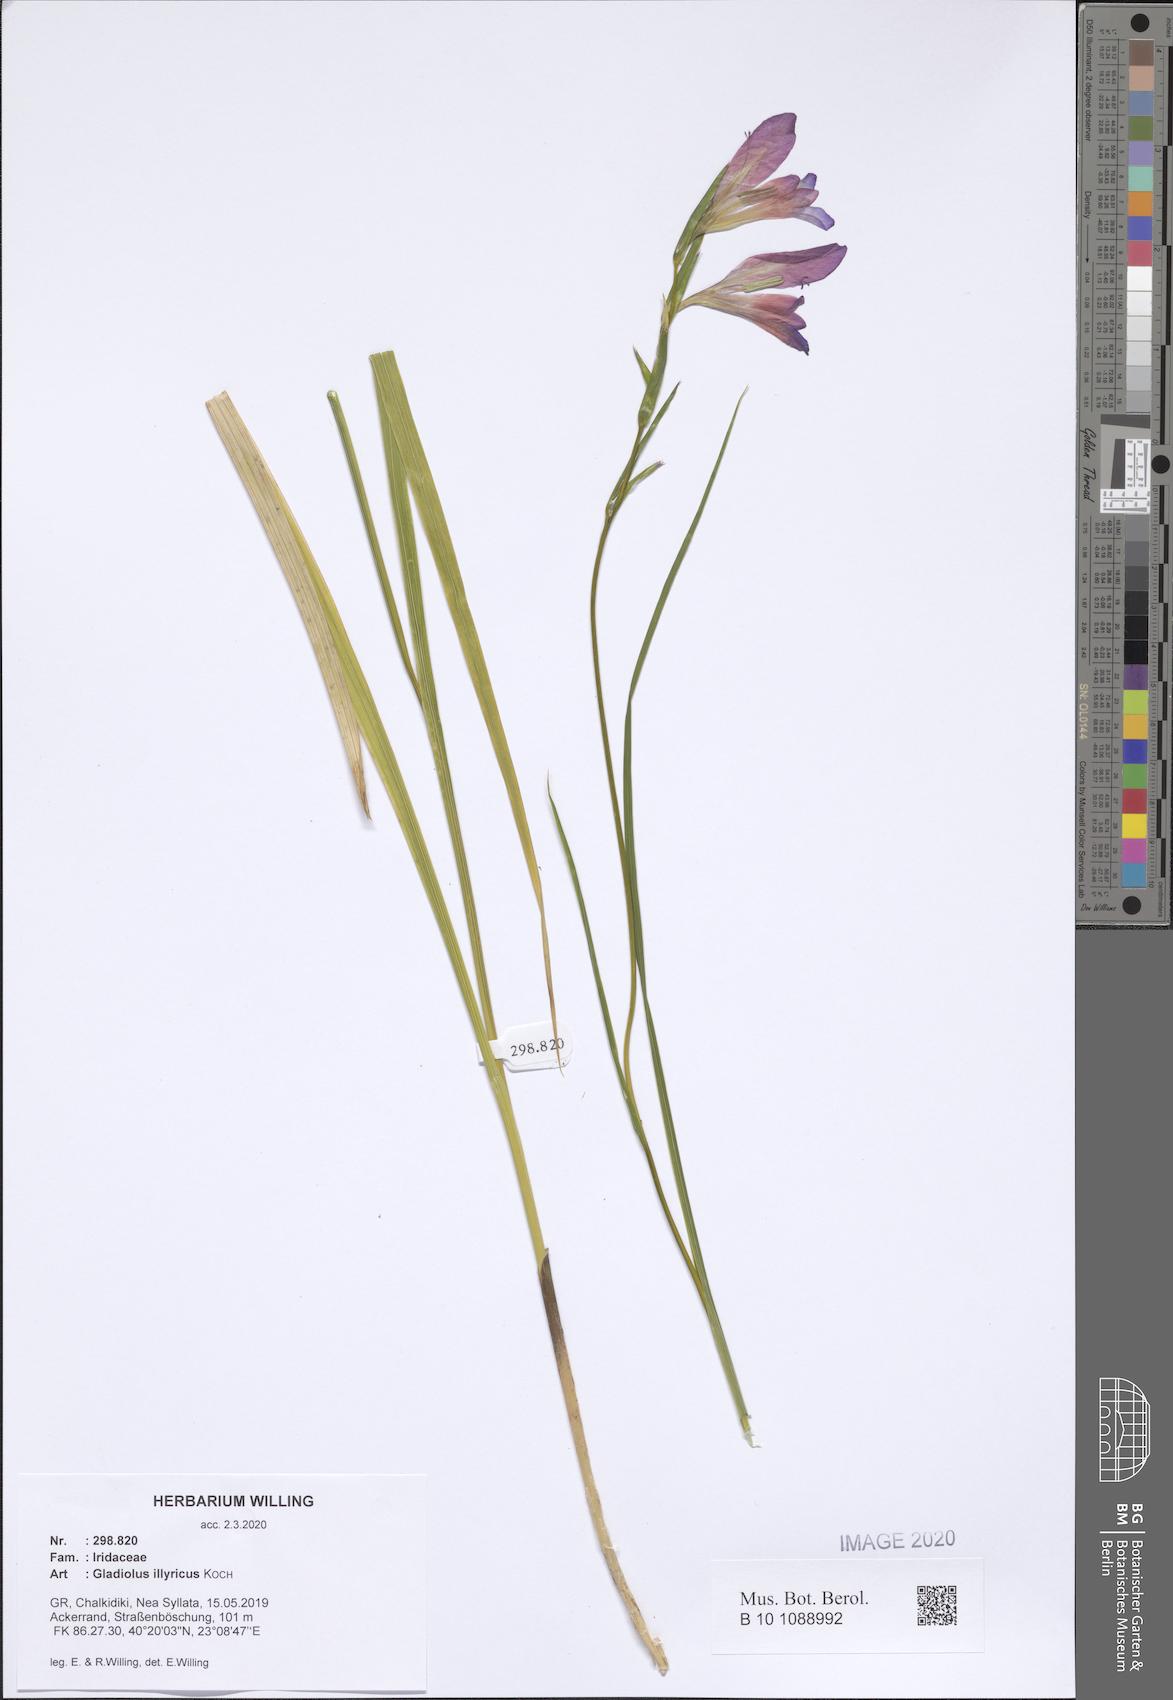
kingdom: Plantae
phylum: Tracheophyta
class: Liliopsida
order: Asparagales
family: Iridaceae
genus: Gladiolus
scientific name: Gladiolus illyricus
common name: Wild gladiolus
